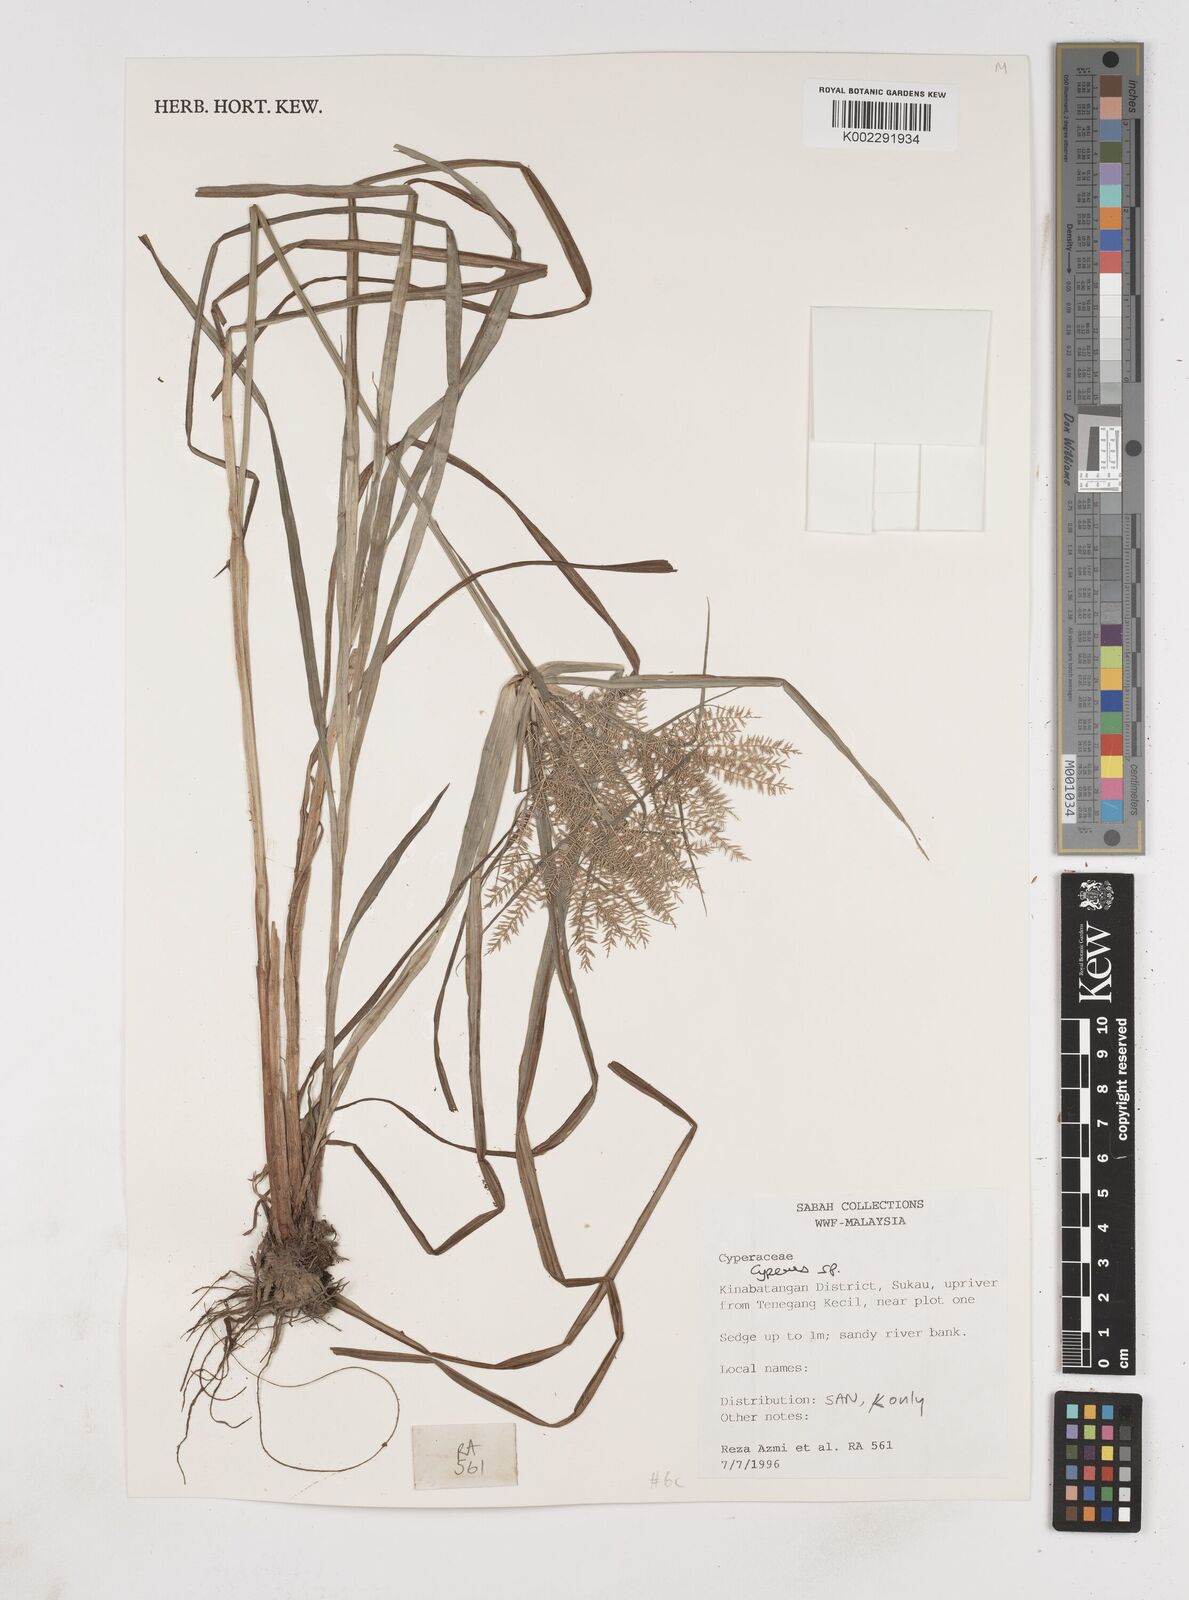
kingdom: Plantae
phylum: Tracheophyta
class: Liliopsida
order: Poales
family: Cyperaceae
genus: Cyperus
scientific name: Cyperus
